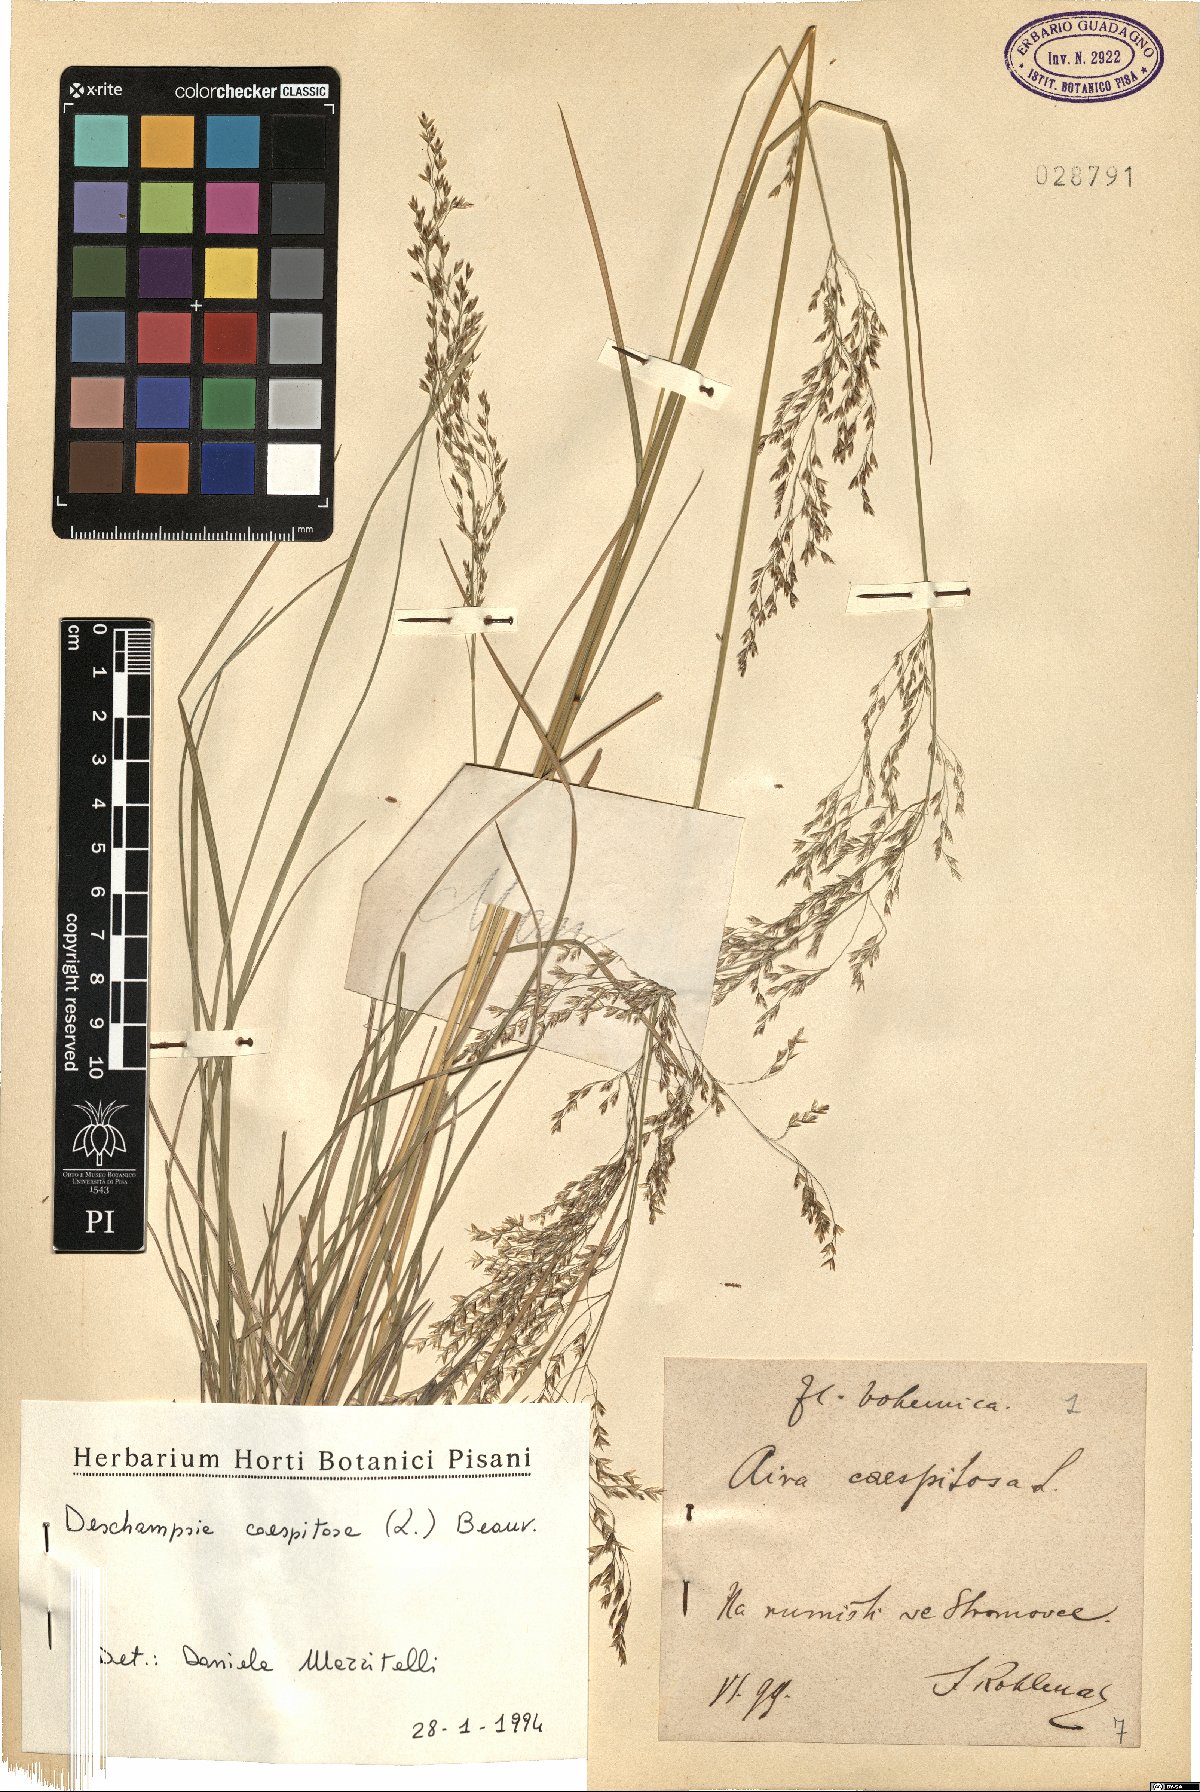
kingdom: Plantae
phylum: Tracheophyta
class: Liliopsida
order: Poales
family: Poaceae
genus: Deschampsia
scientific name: Deschampsia cespitosa
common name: Tufted hair-grass
